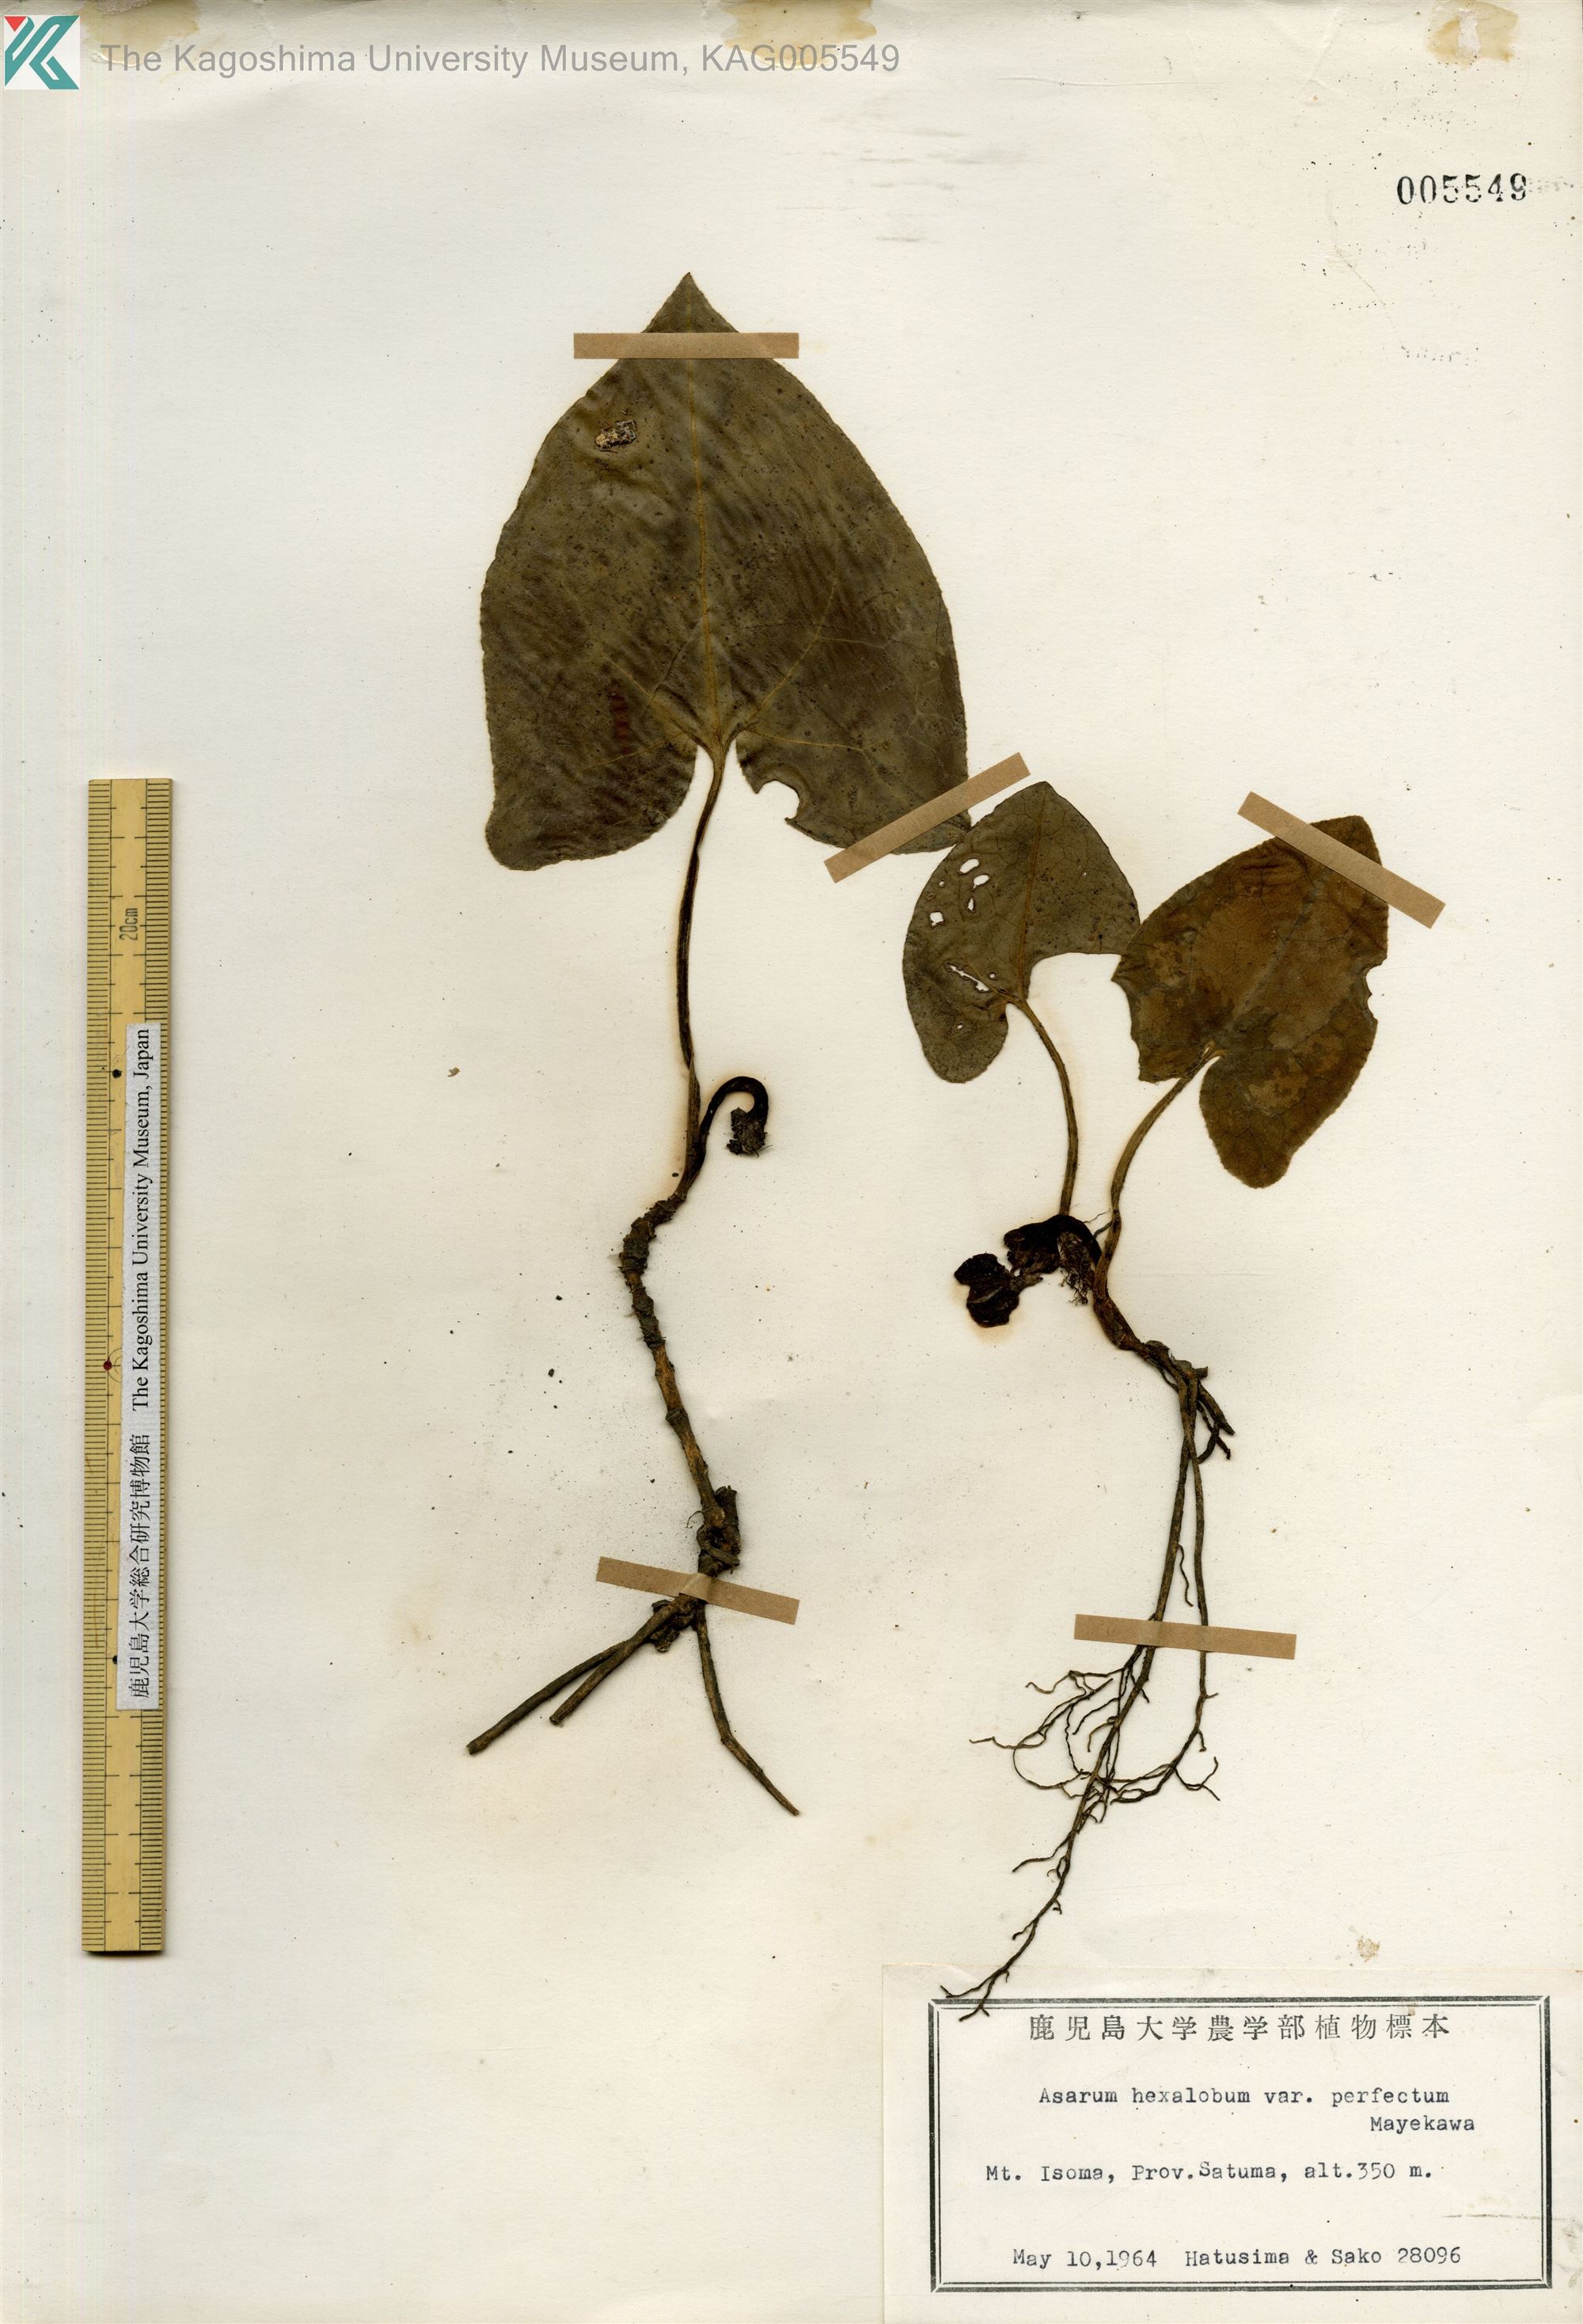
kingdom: Plantae
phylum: Tracheophyta
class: Magnoliopsida
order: Piperales
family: Aristolochiaceae
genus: Asarum
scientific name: Asarum hexalobum
